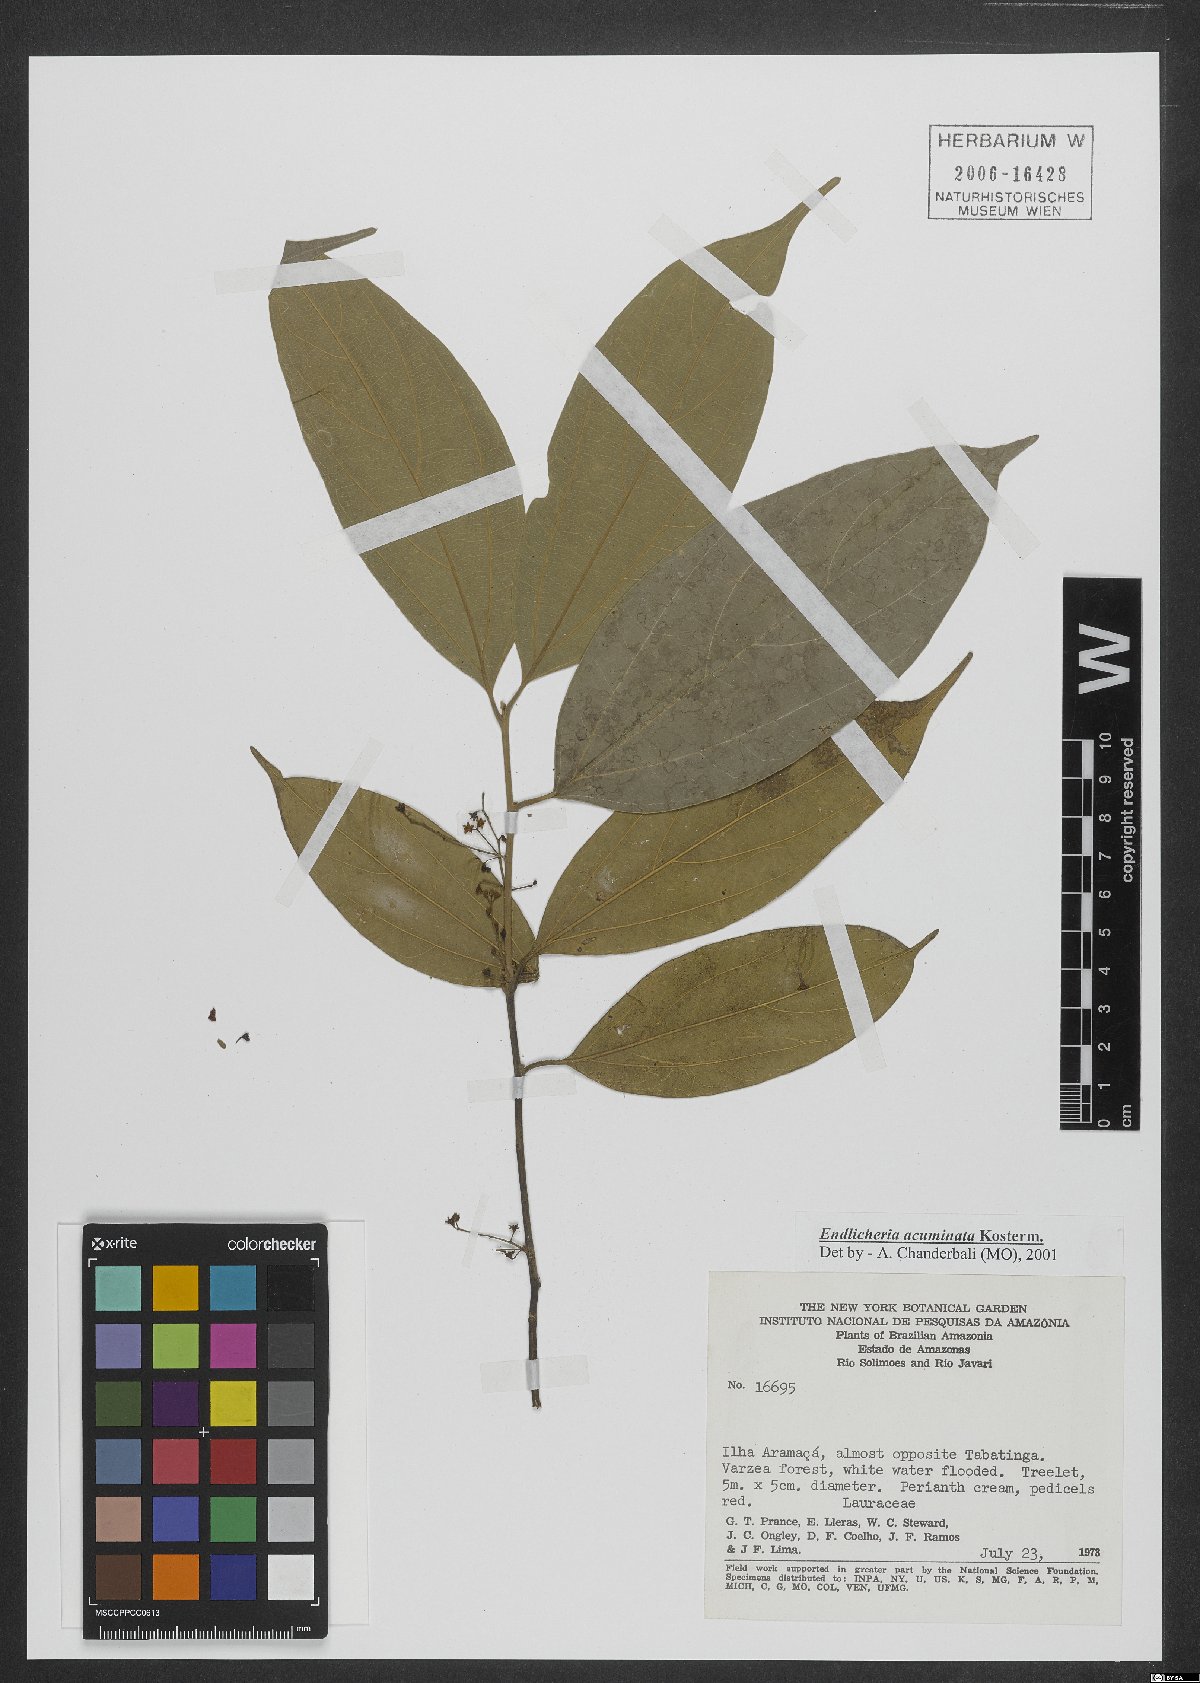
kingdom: Plantae
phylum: Tracheophyta
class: Magnoliopsida
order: Laurales
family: Lauraceae
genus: Endlicheria
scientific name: Endlicheria acuminata
